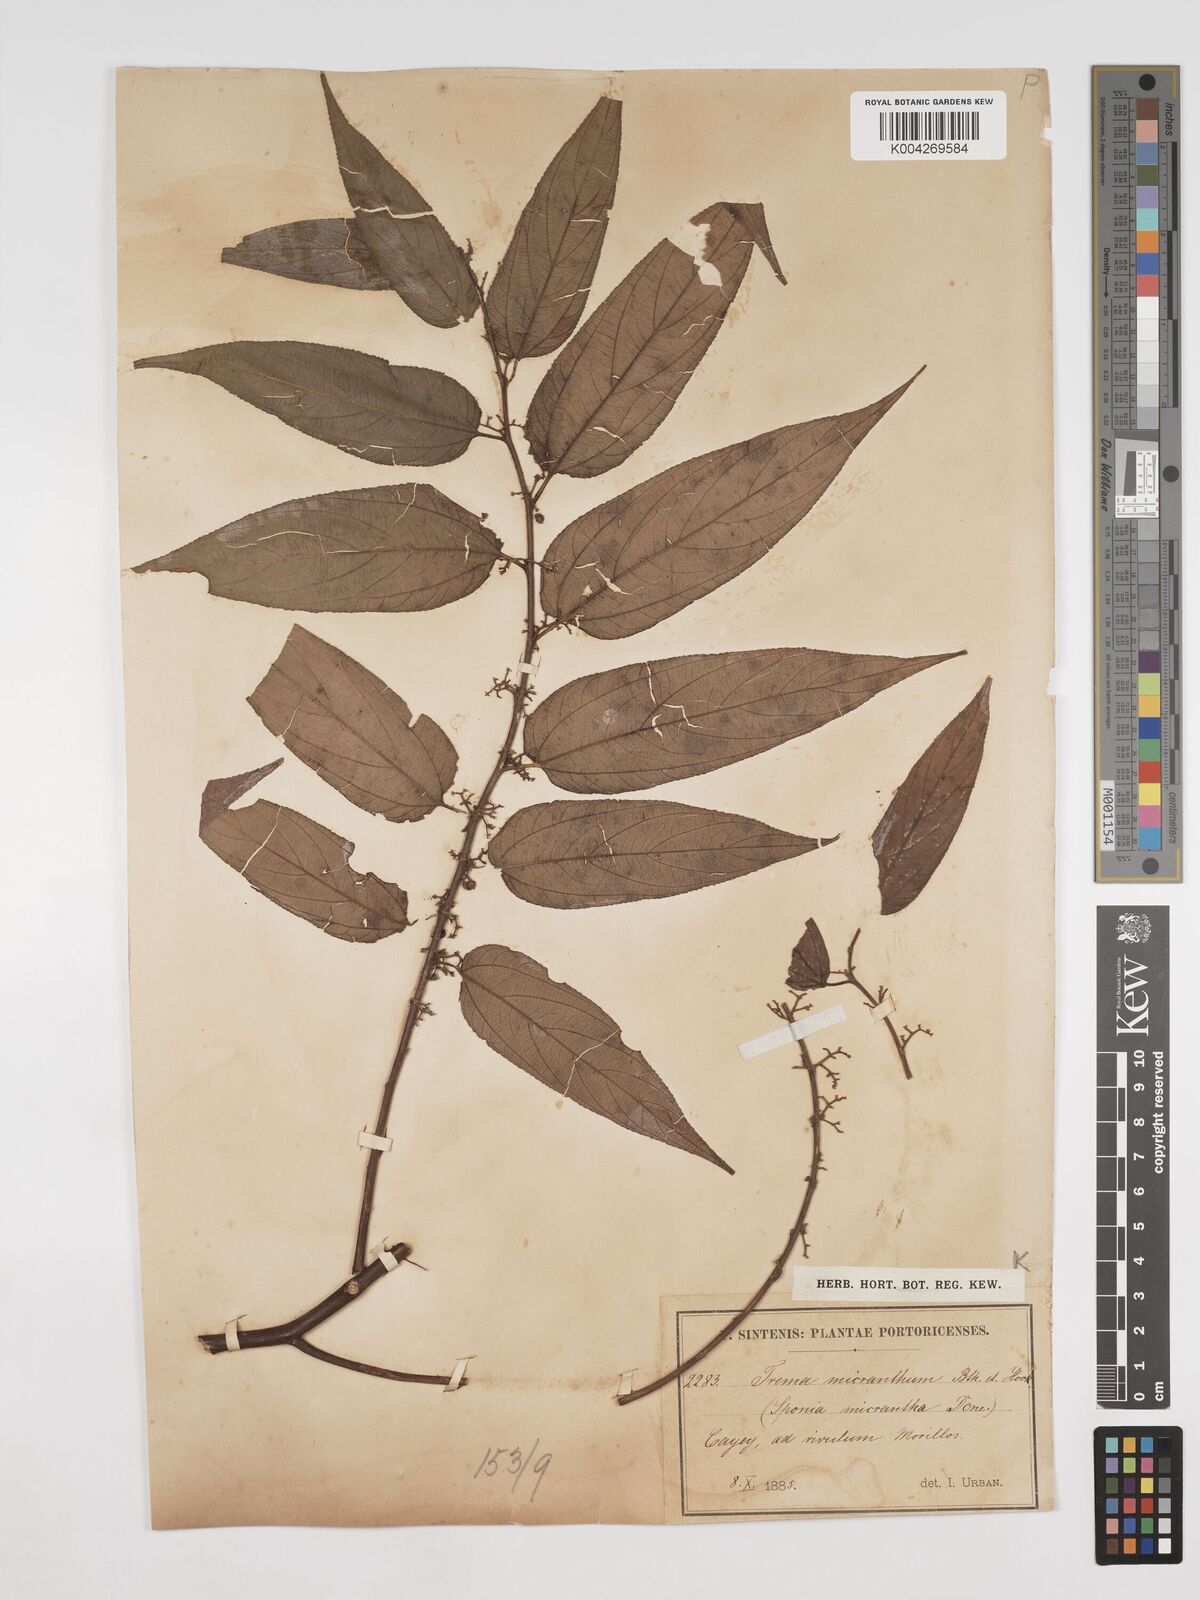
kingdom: Plantae
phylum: Tracheophyta
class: Magnoliopsida
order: Rosales
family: Cannabaceae
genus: Trema
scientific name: Trema micranthum
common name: Jamaican nettletree
